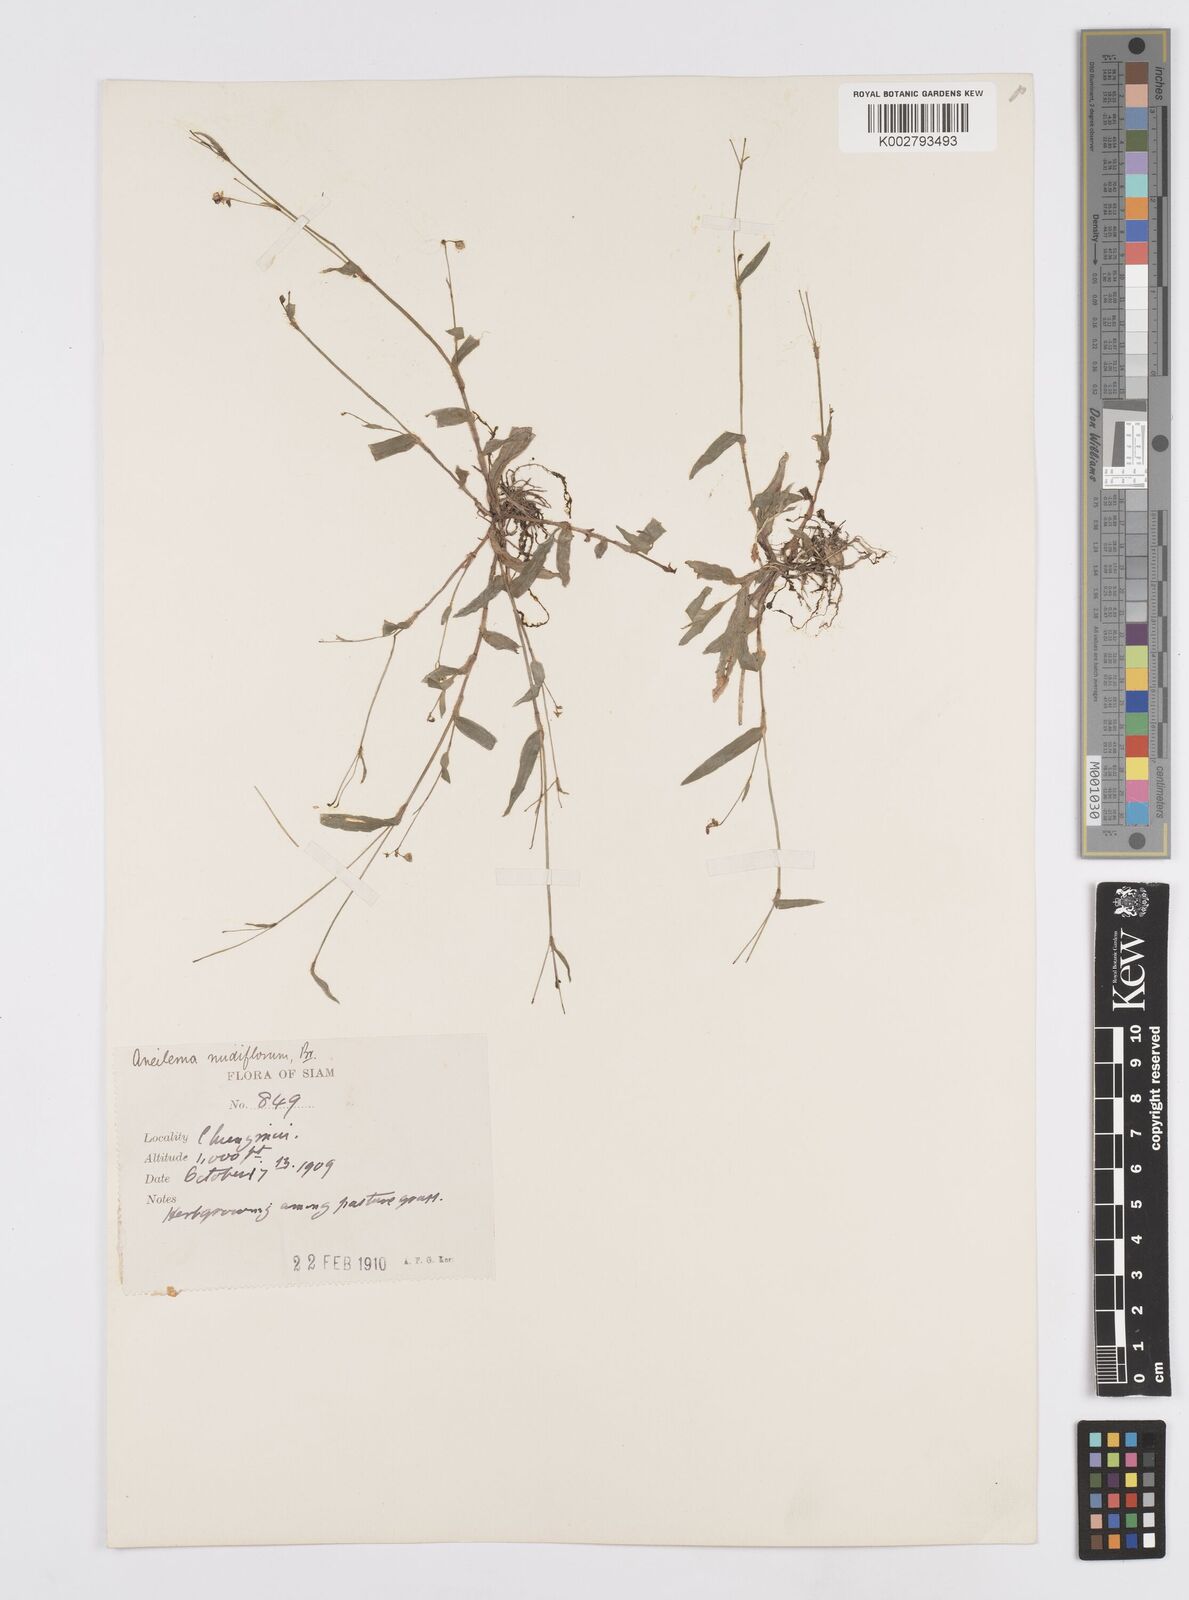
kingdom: Plantae
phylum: Tracheophyta
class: Liliopsida
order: Commelinales
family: Commelinaceae
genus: Murdannia
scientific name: Murdannia nudiflora
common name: Nakedstem dewflower
